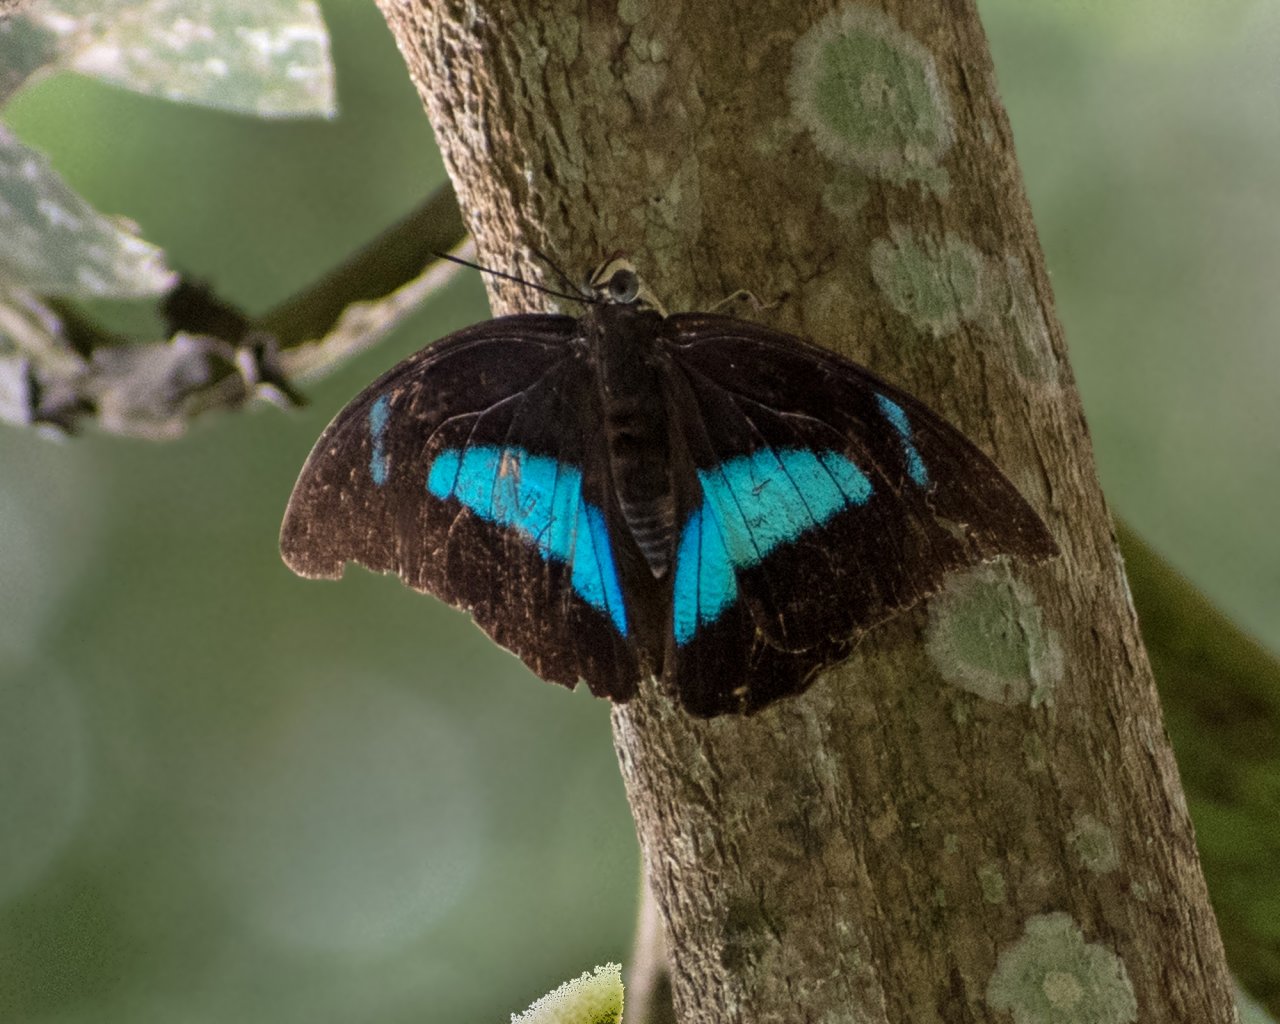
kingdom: Animalia
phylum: Arthropoda
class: Insecta
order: Lepidoptera
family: Nymphalidae
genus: Prepona
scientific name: Prepona
